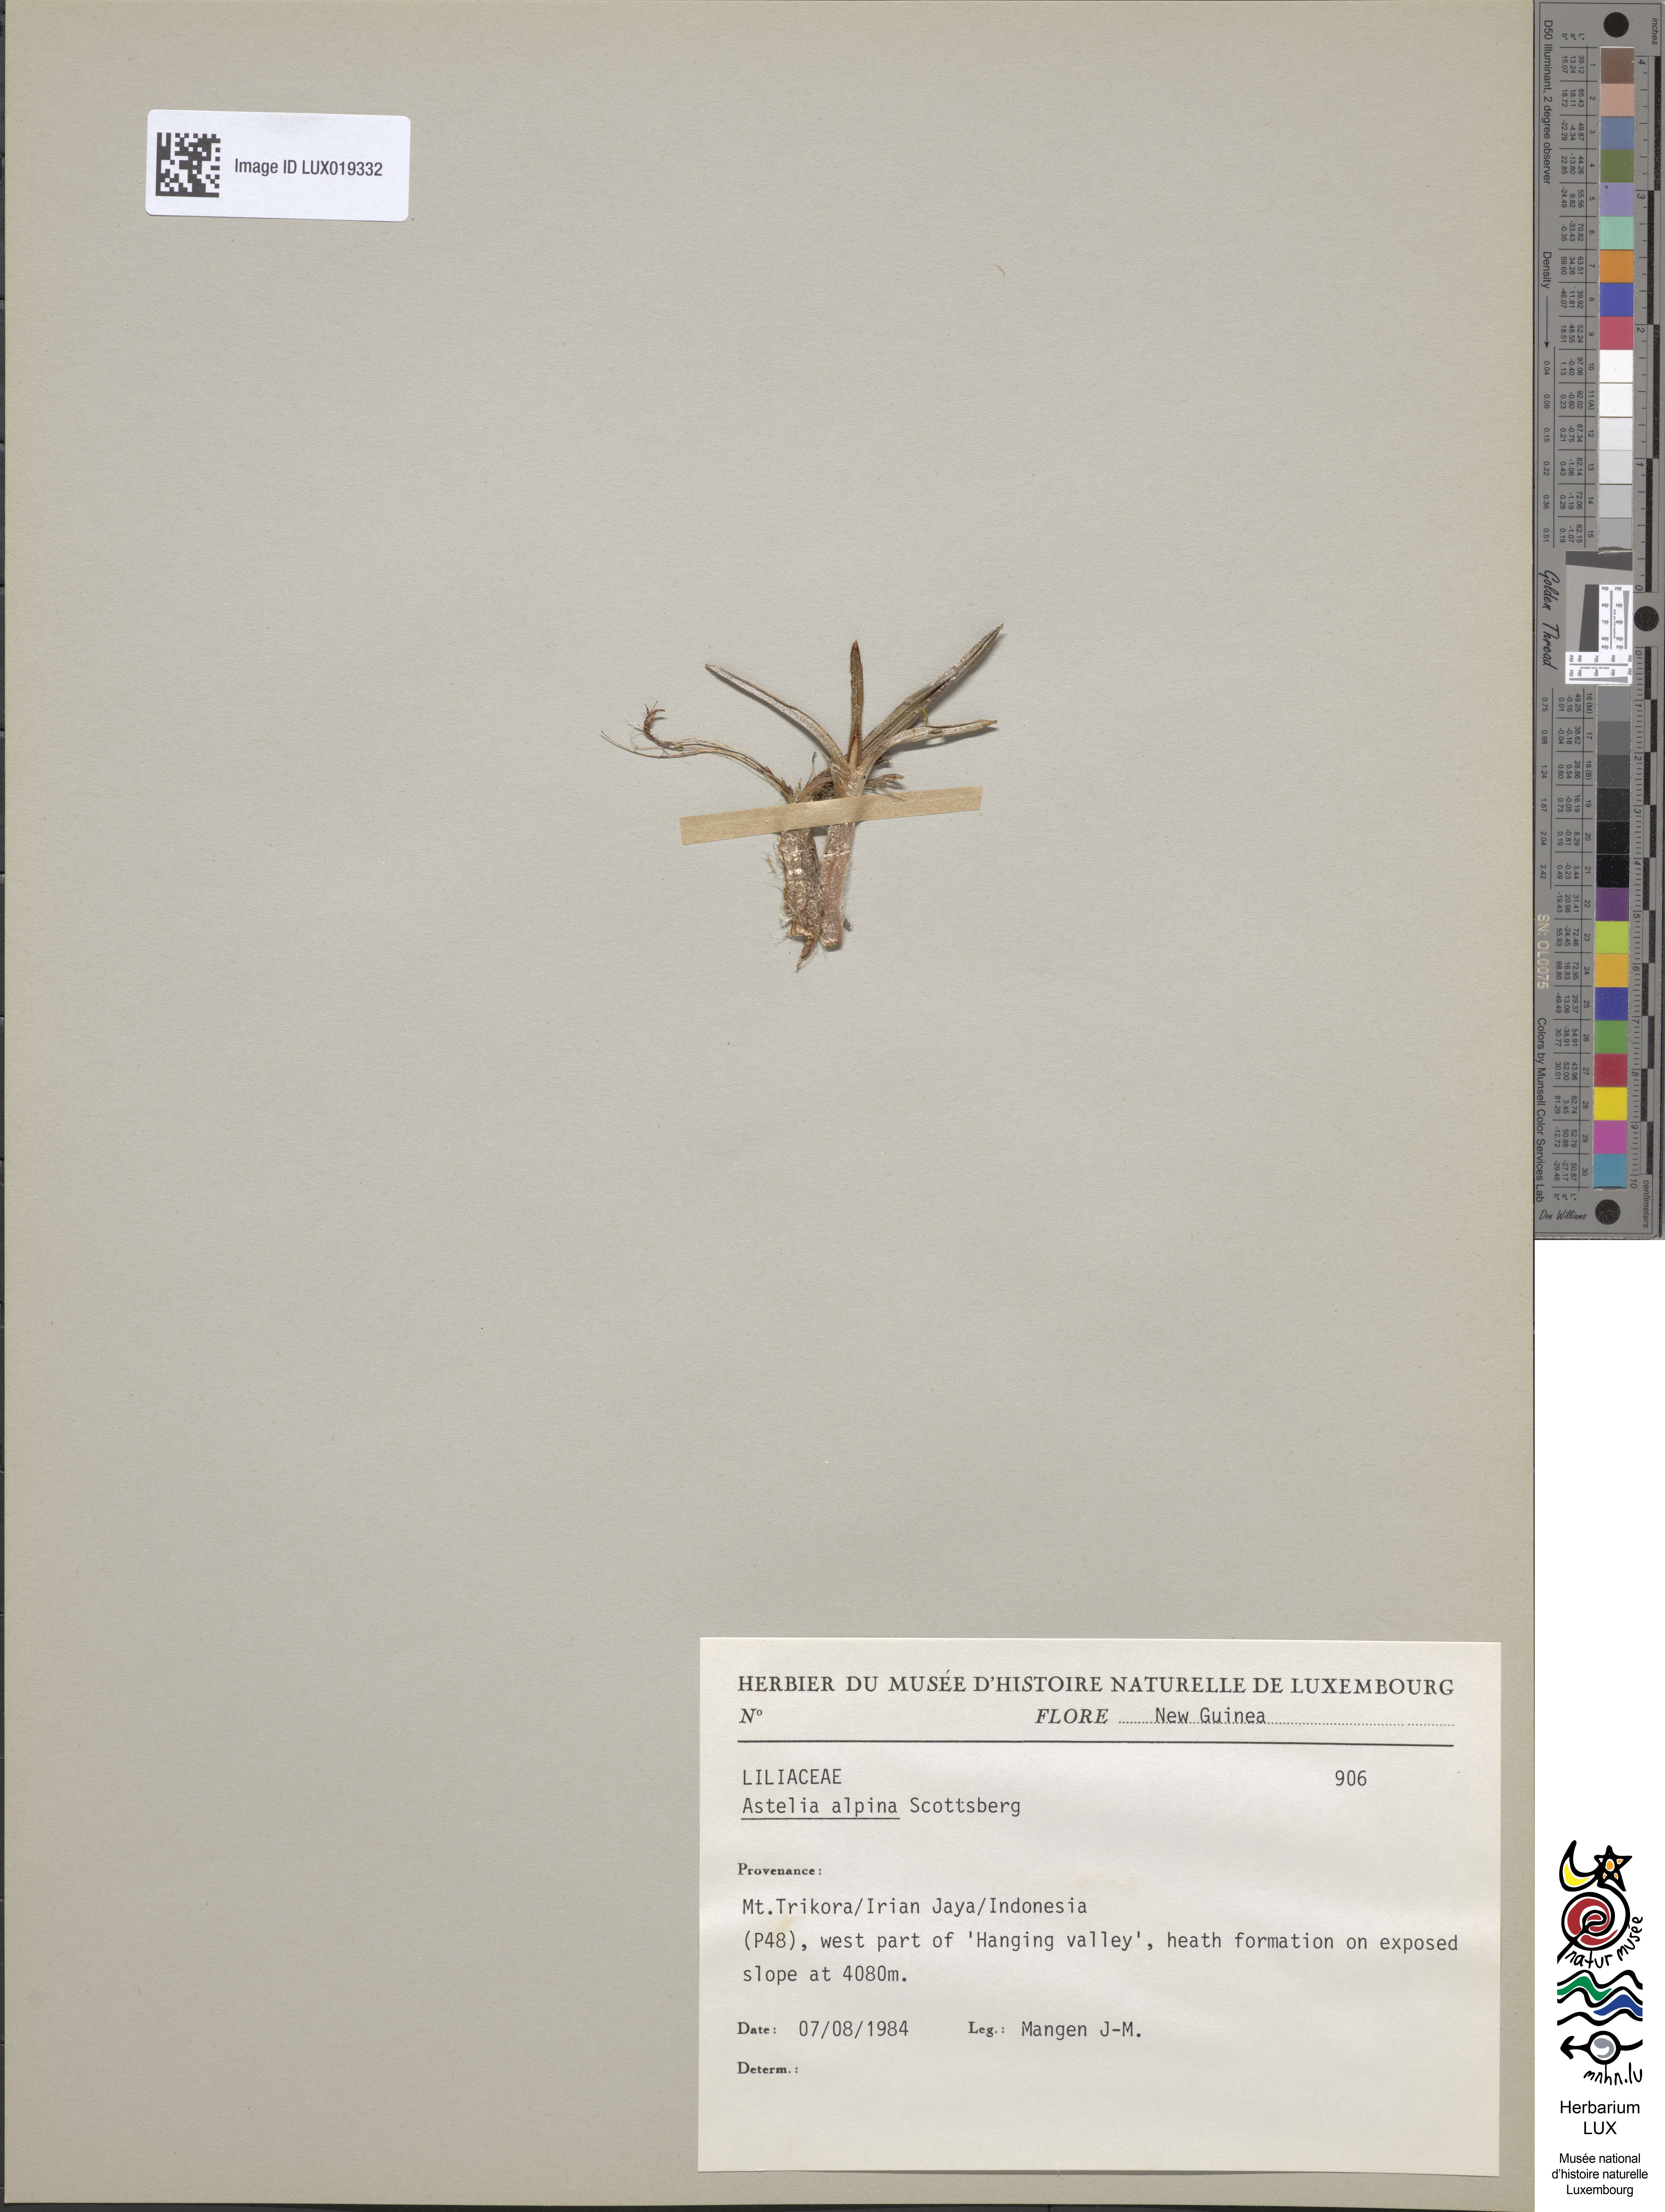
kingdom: Plantae
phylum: Tracheophyta
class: Liliopsida
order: Asparagales
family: Asteliaceae
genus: Astelia
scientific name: Astelia alpina
